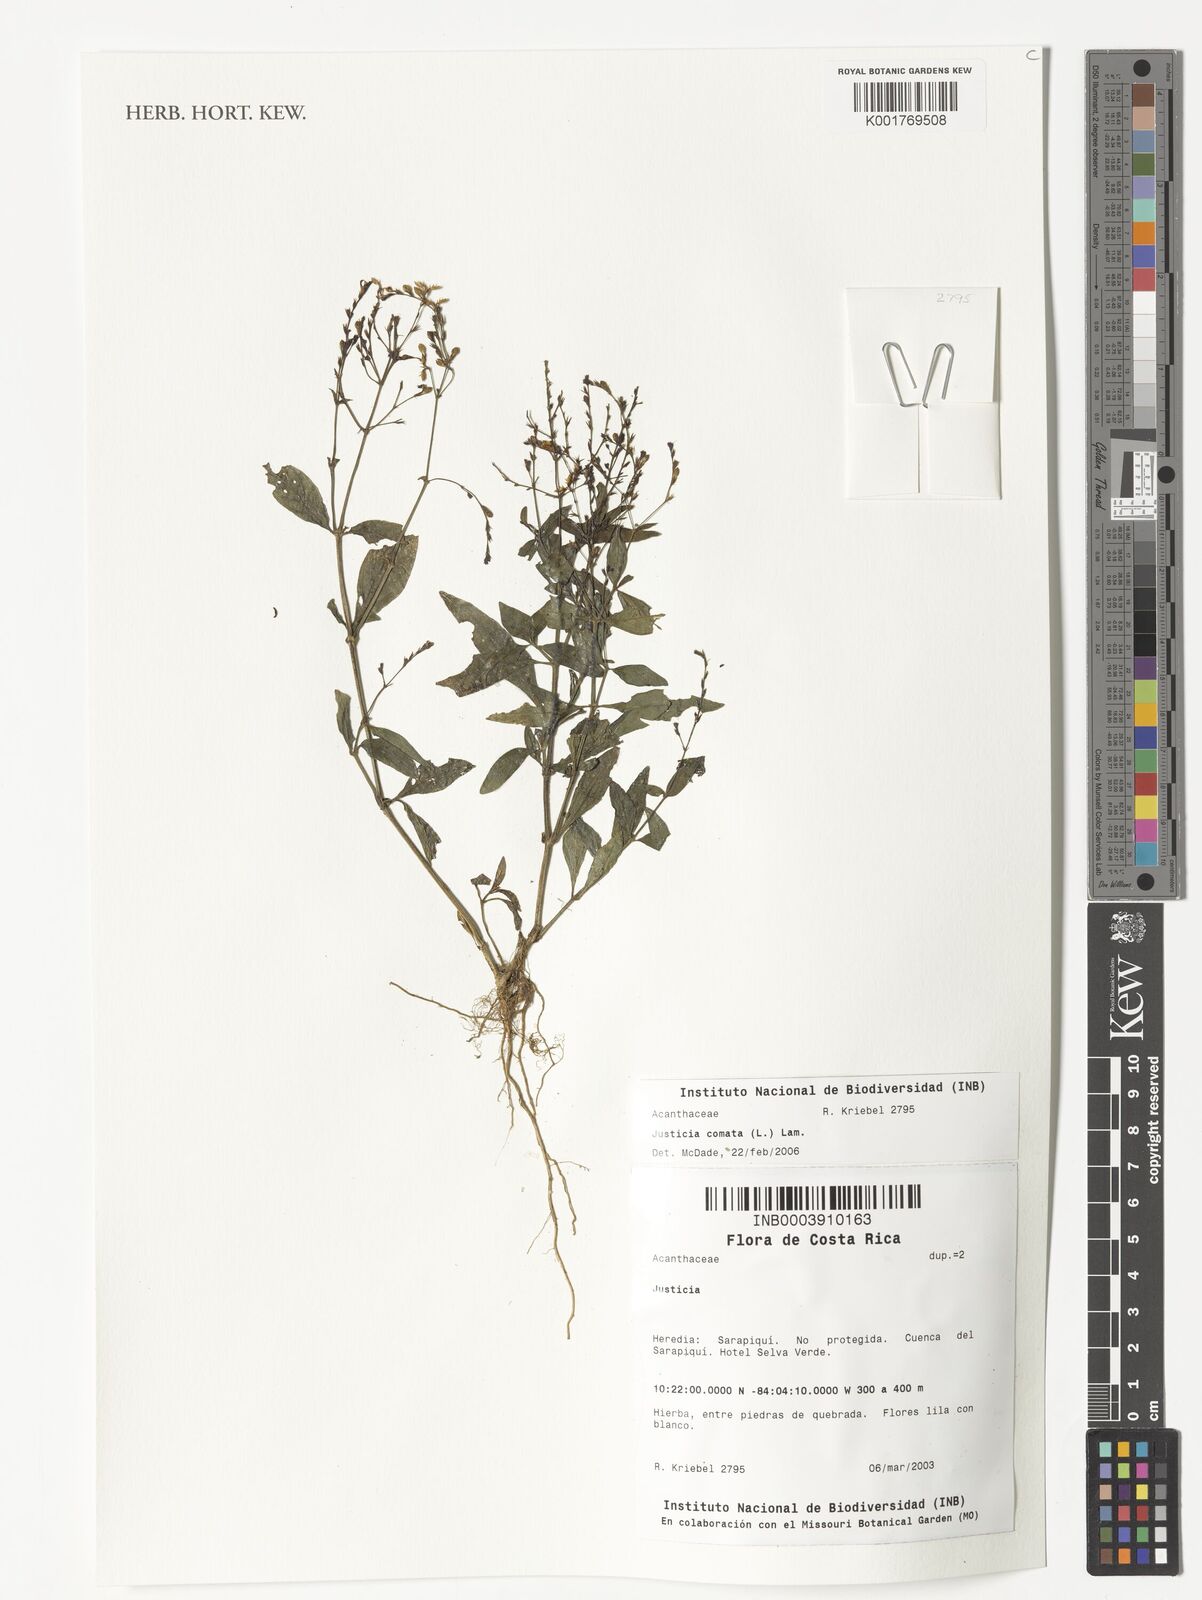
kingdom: Plantae
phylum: Tracheophyta
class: Magnoliopsida
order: Lamiales
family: Acanthaceae
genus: Dianthera
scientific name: Dianthera comata
